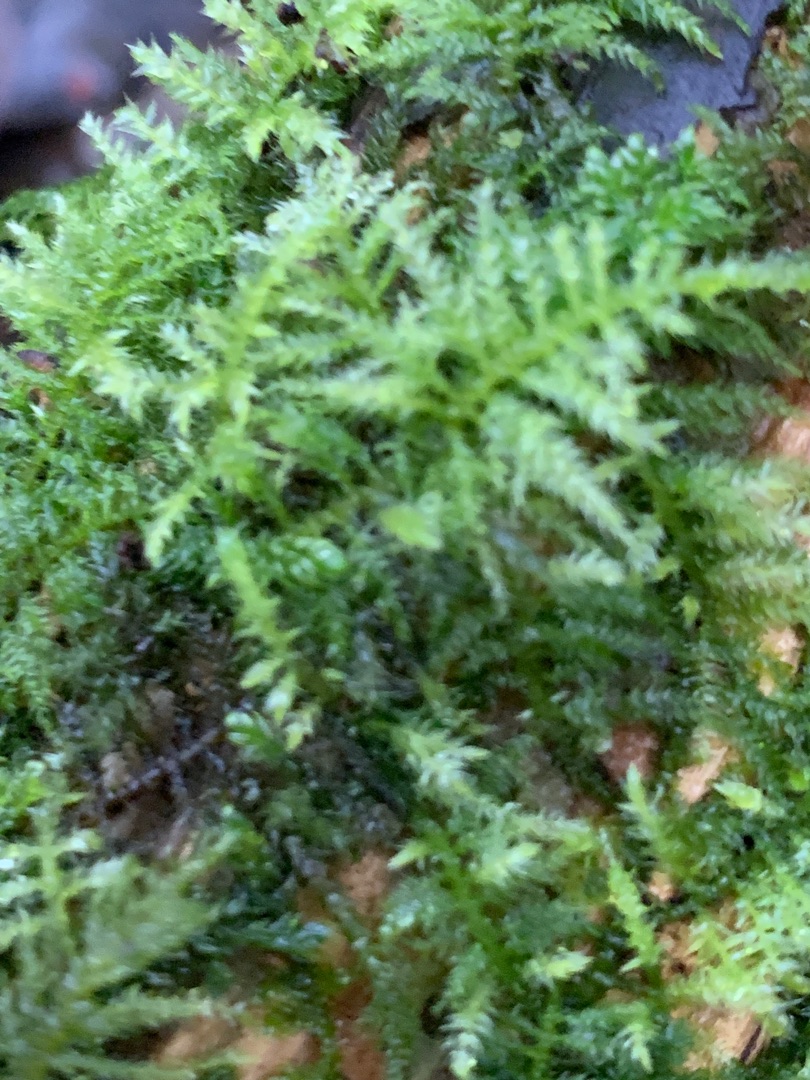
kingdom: Plantae
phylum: Bryophyta
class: Bryopsida
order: Hypnales
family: Brachytheciaceae
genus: Kindbergia
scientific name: Kindbergia praelonga
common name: Forskelligbladet vortetand
